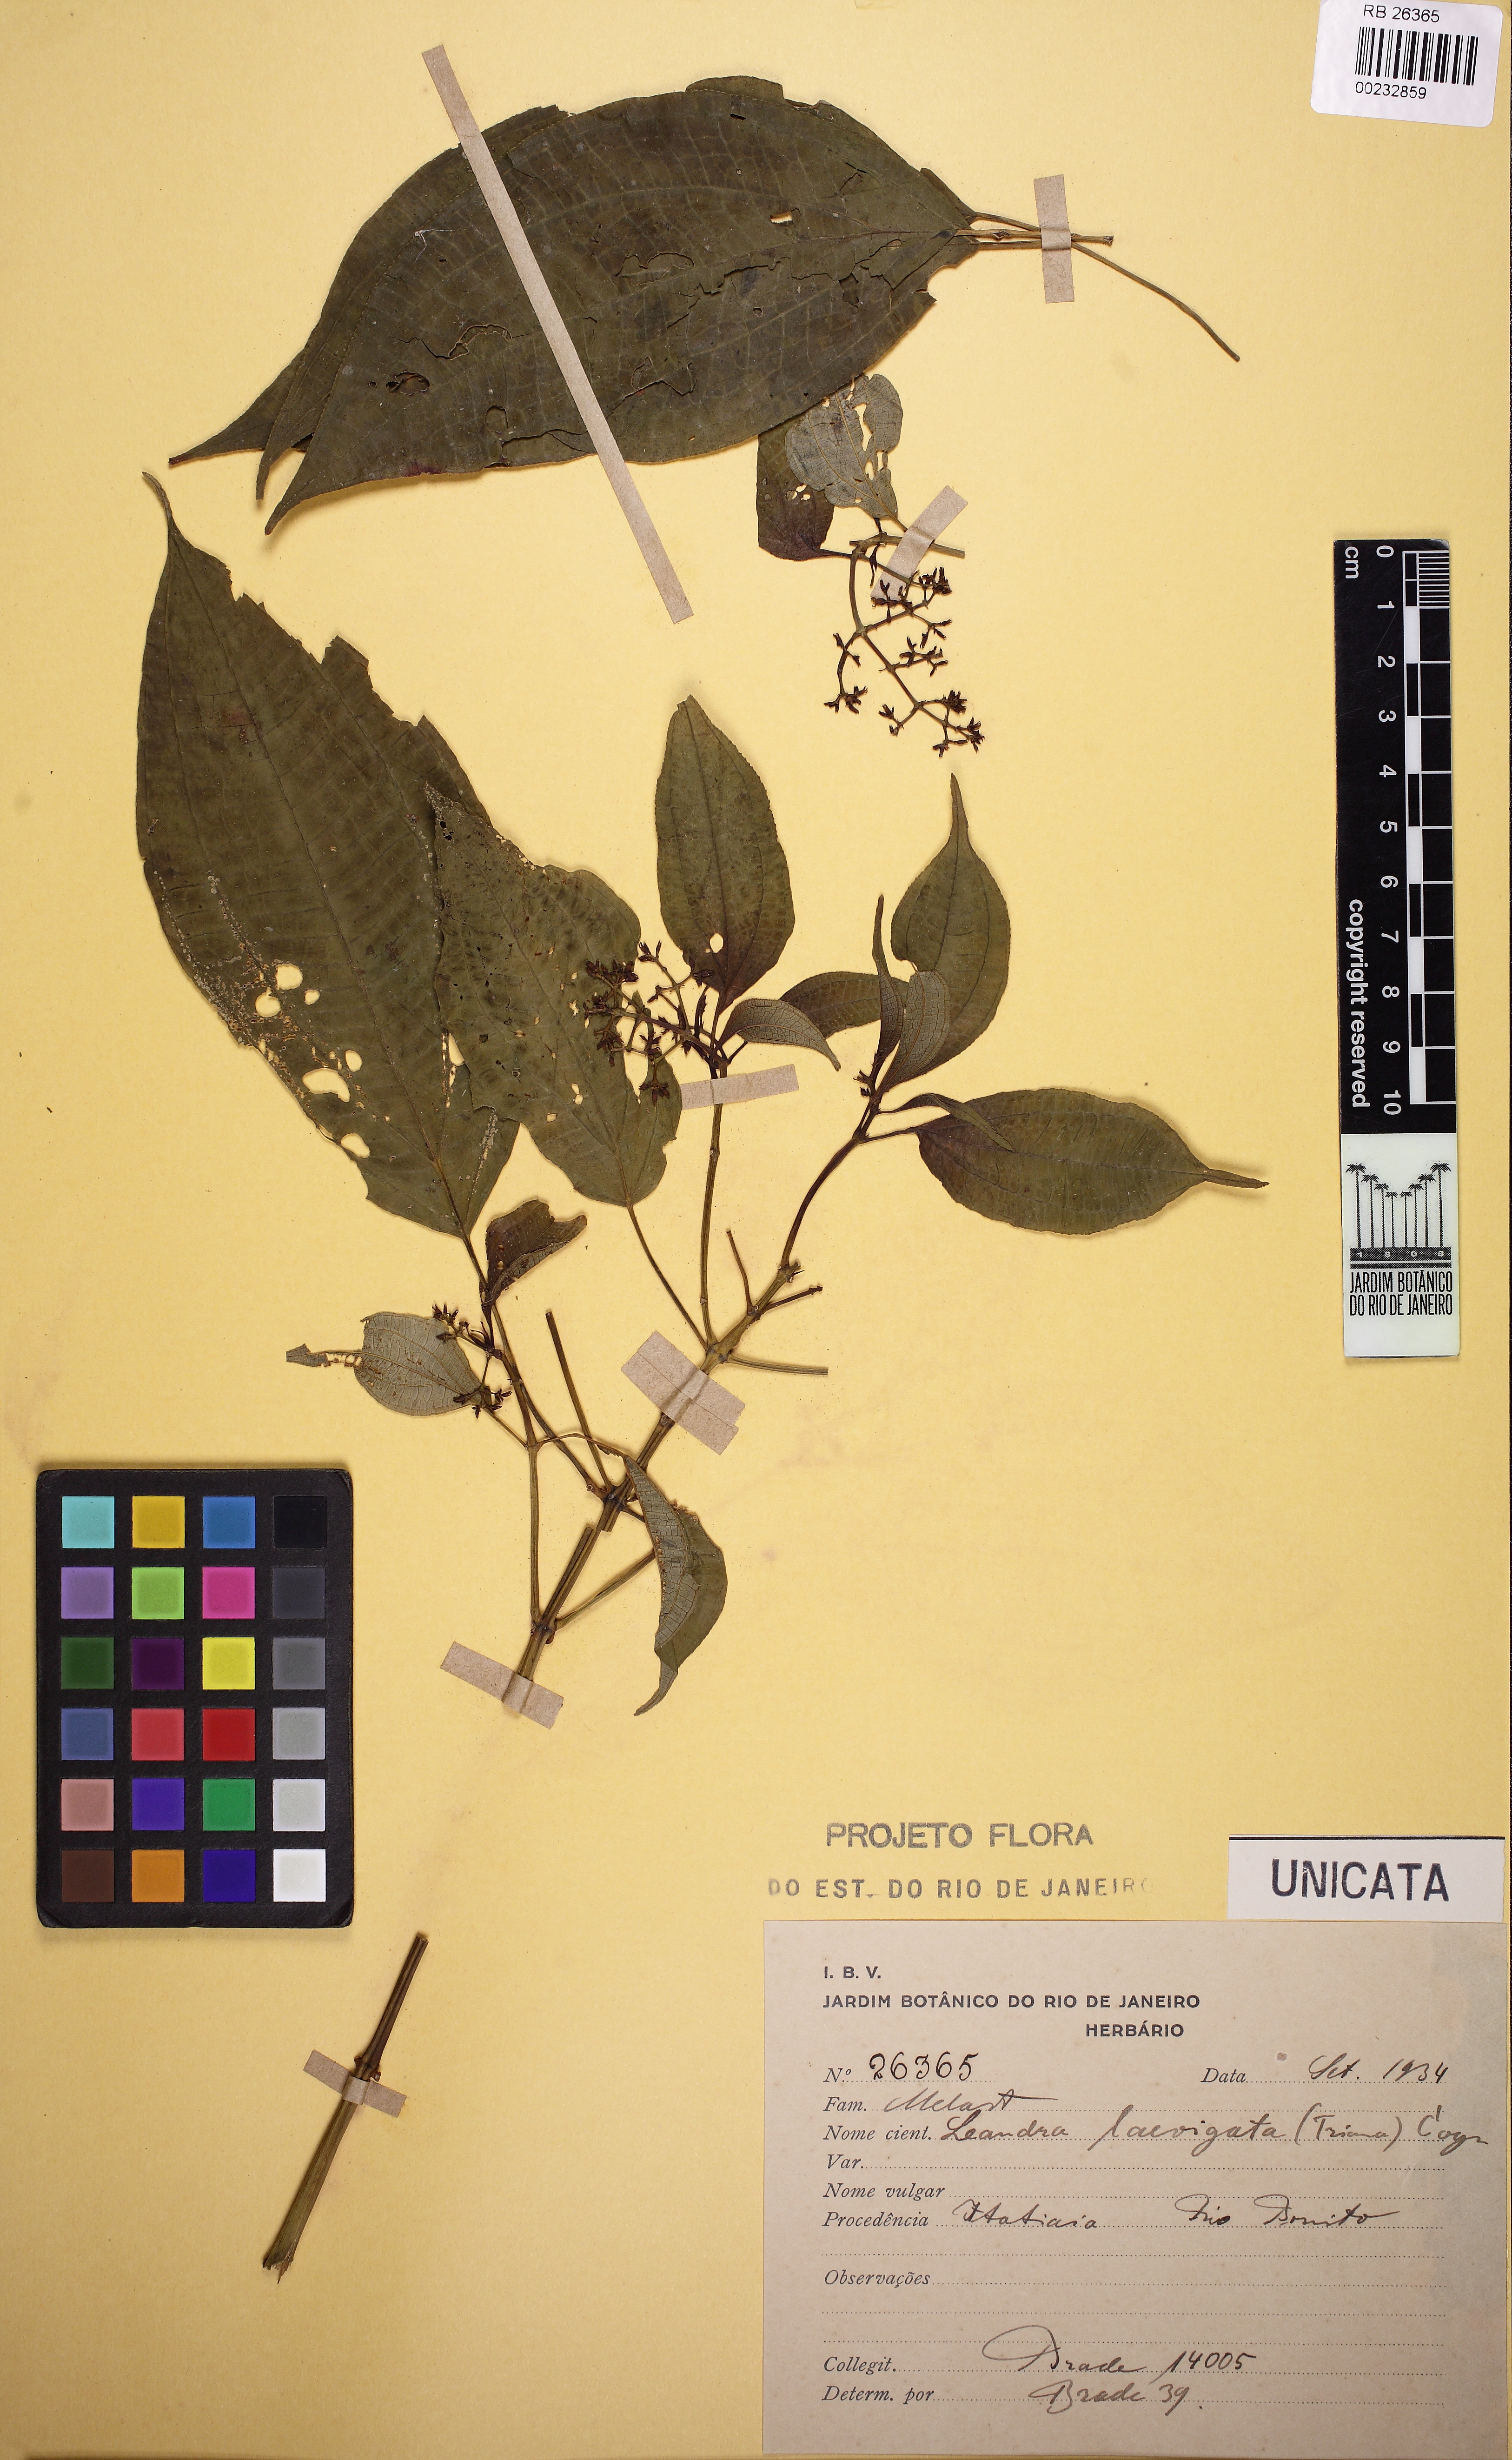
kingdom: Plantae
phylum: Tracheophyta
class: Magnoliopsida
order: Myrtales
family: Melastomataceae
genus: Miconia
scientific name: Miconia ciliolata
